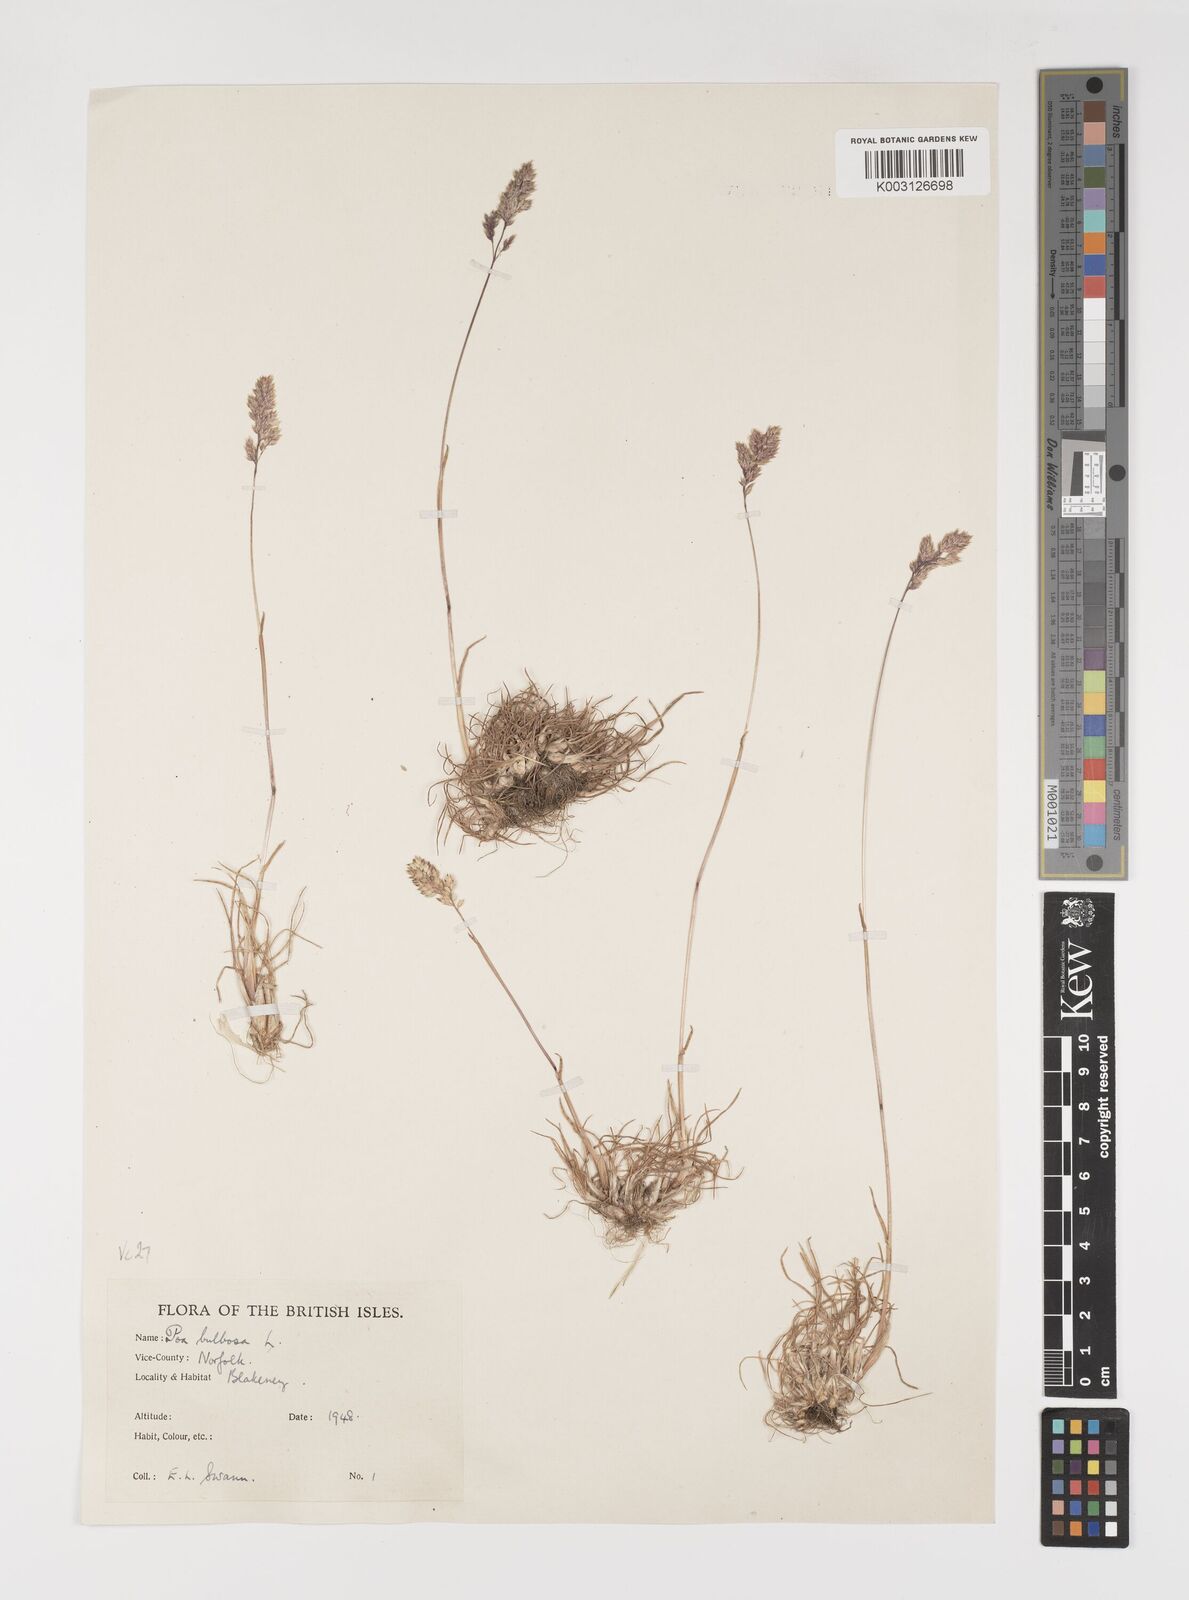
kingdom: Plantae
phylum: Tracheophyta
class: Liliopsida
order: Poales
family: Poaceae
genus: Poa
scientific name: Poa bulbosa
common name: Bulbous bluegrass
